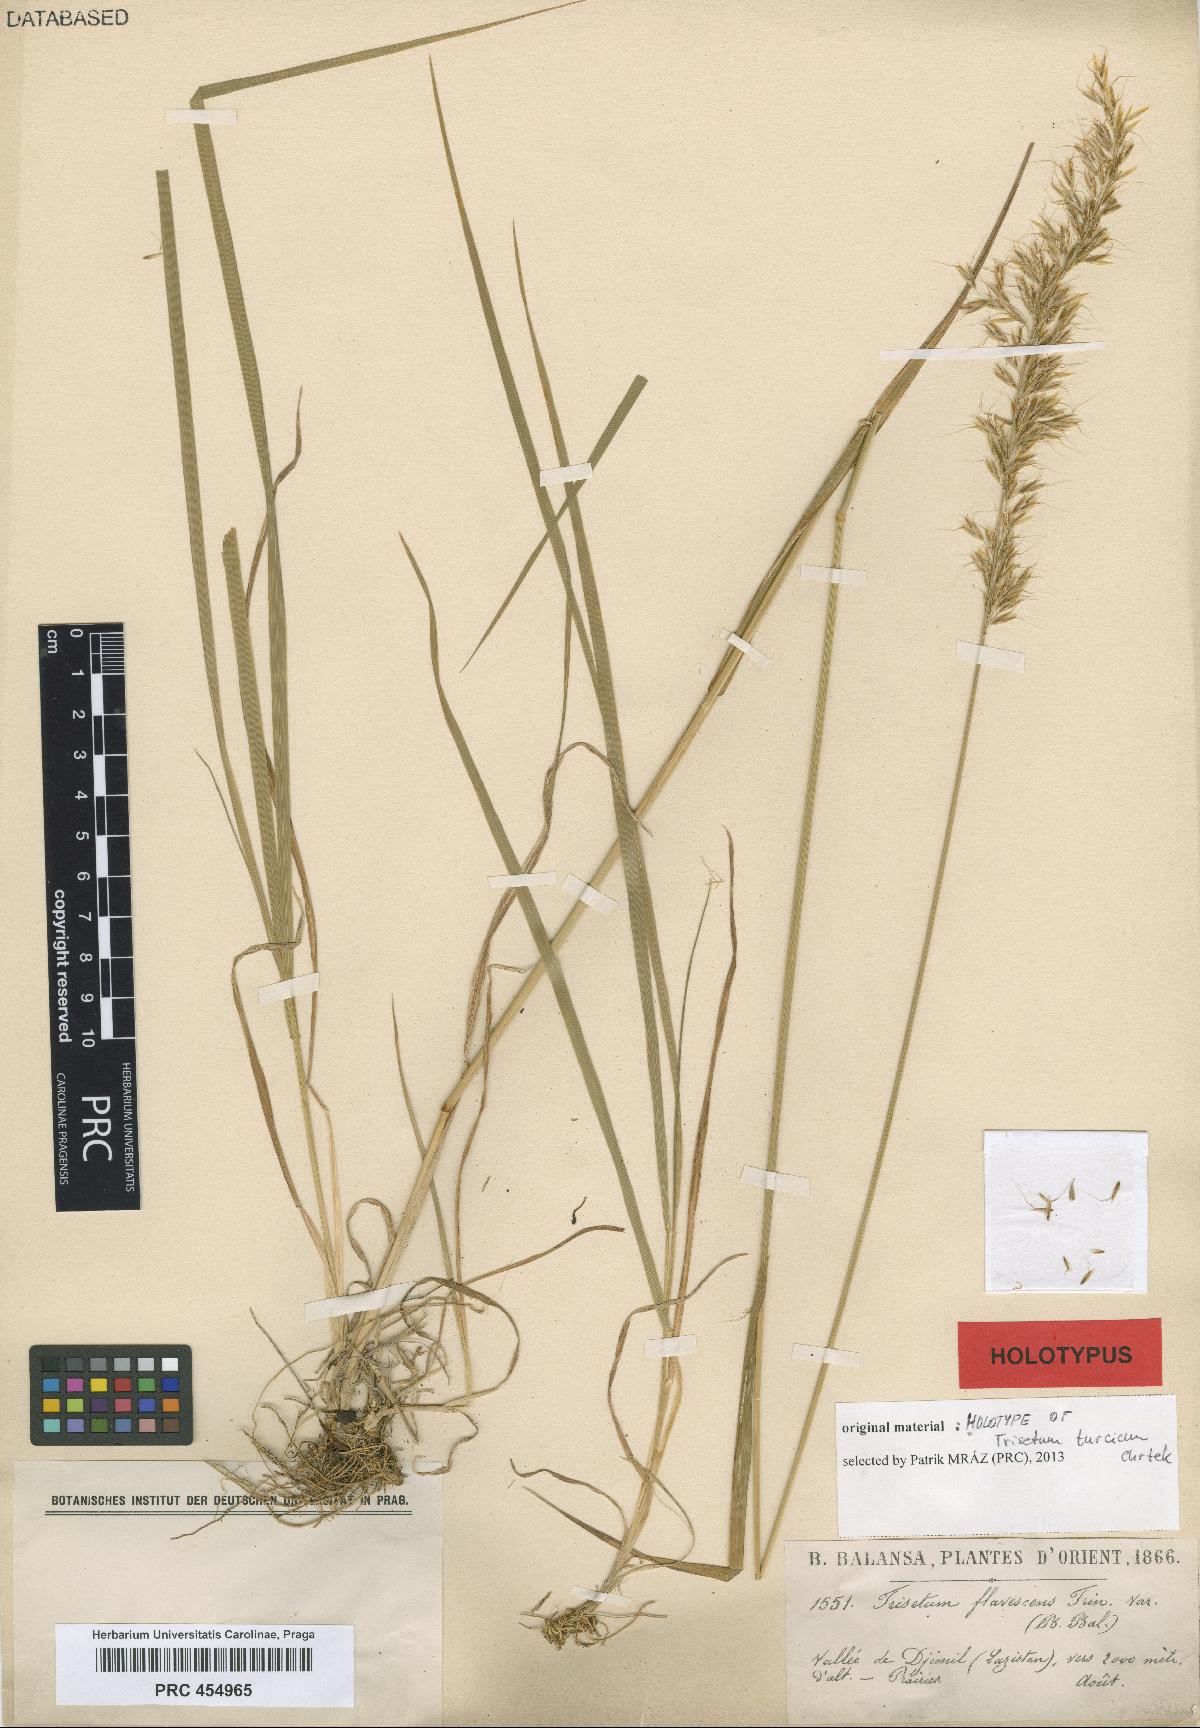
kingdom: Plantae
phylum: Tracheophyta
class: Liliopsida
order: Poales
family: Poaceae
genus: Trisetum
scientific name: Trisetum flavescens
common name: Yellow oat-grass
